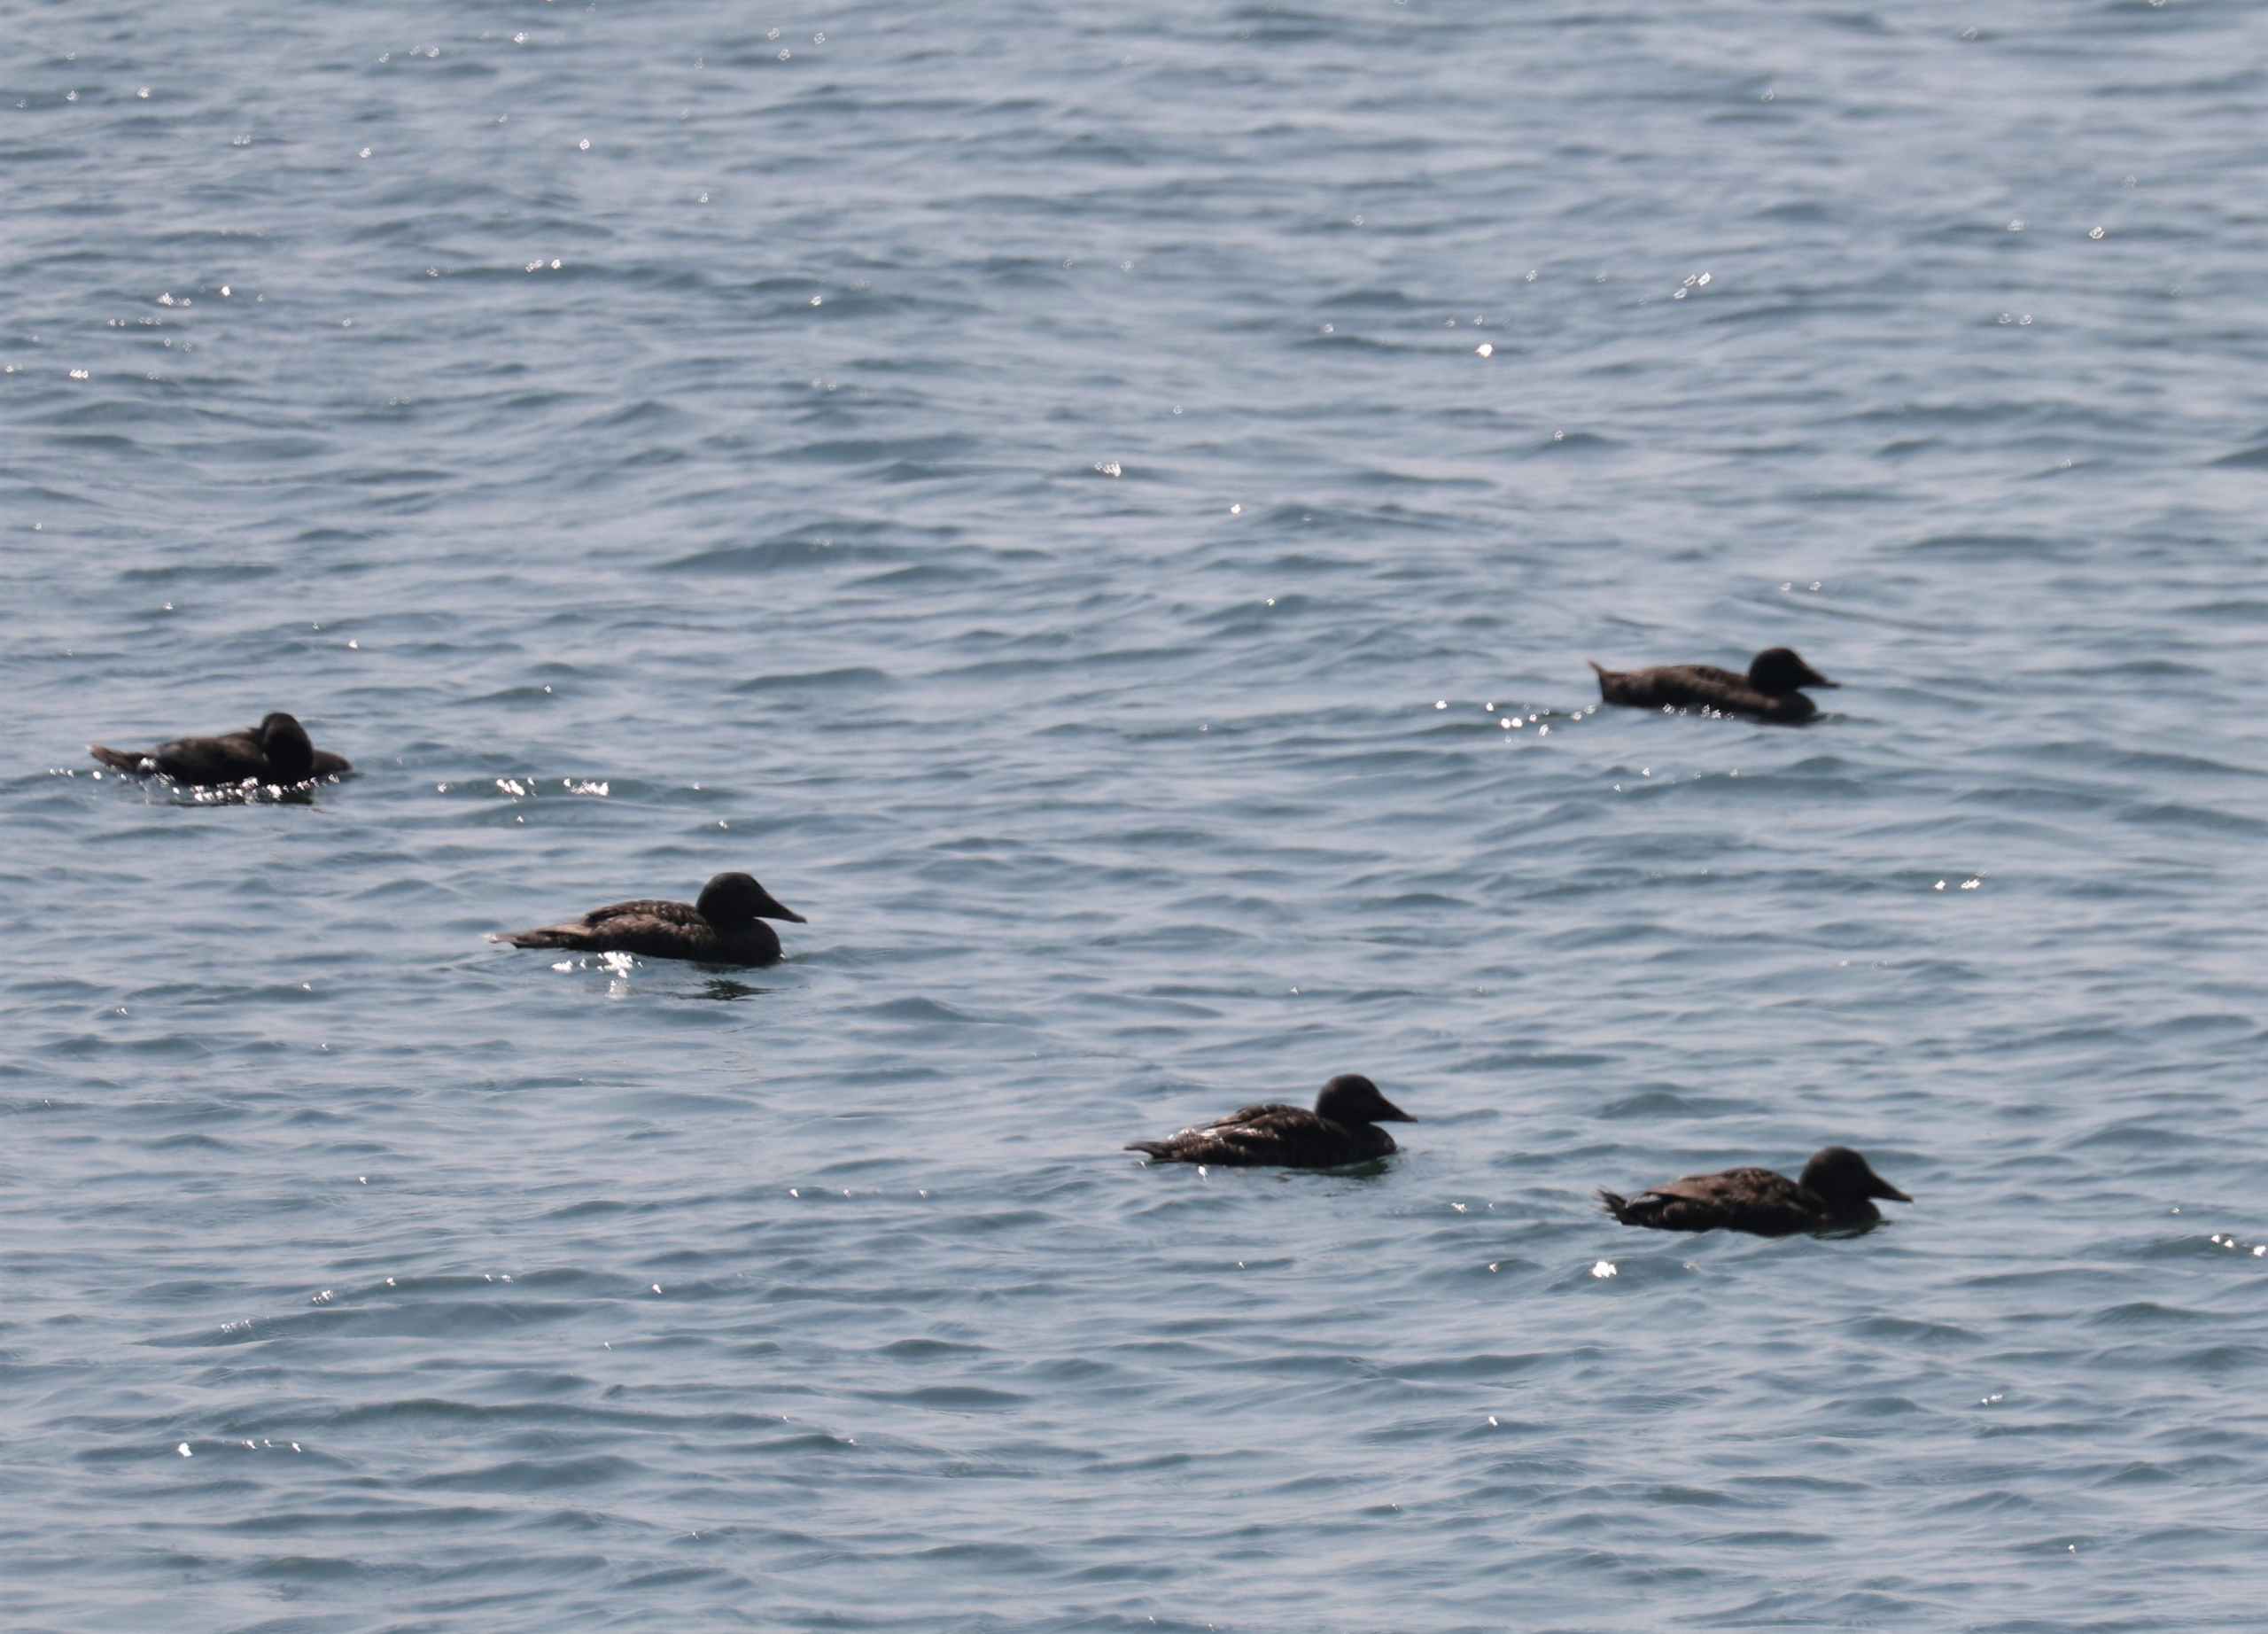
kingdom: Animalia
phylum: Chordata
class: Aves
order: Anseriformes
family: Anatidae
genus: Somateria
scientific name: Somateria mollissima
